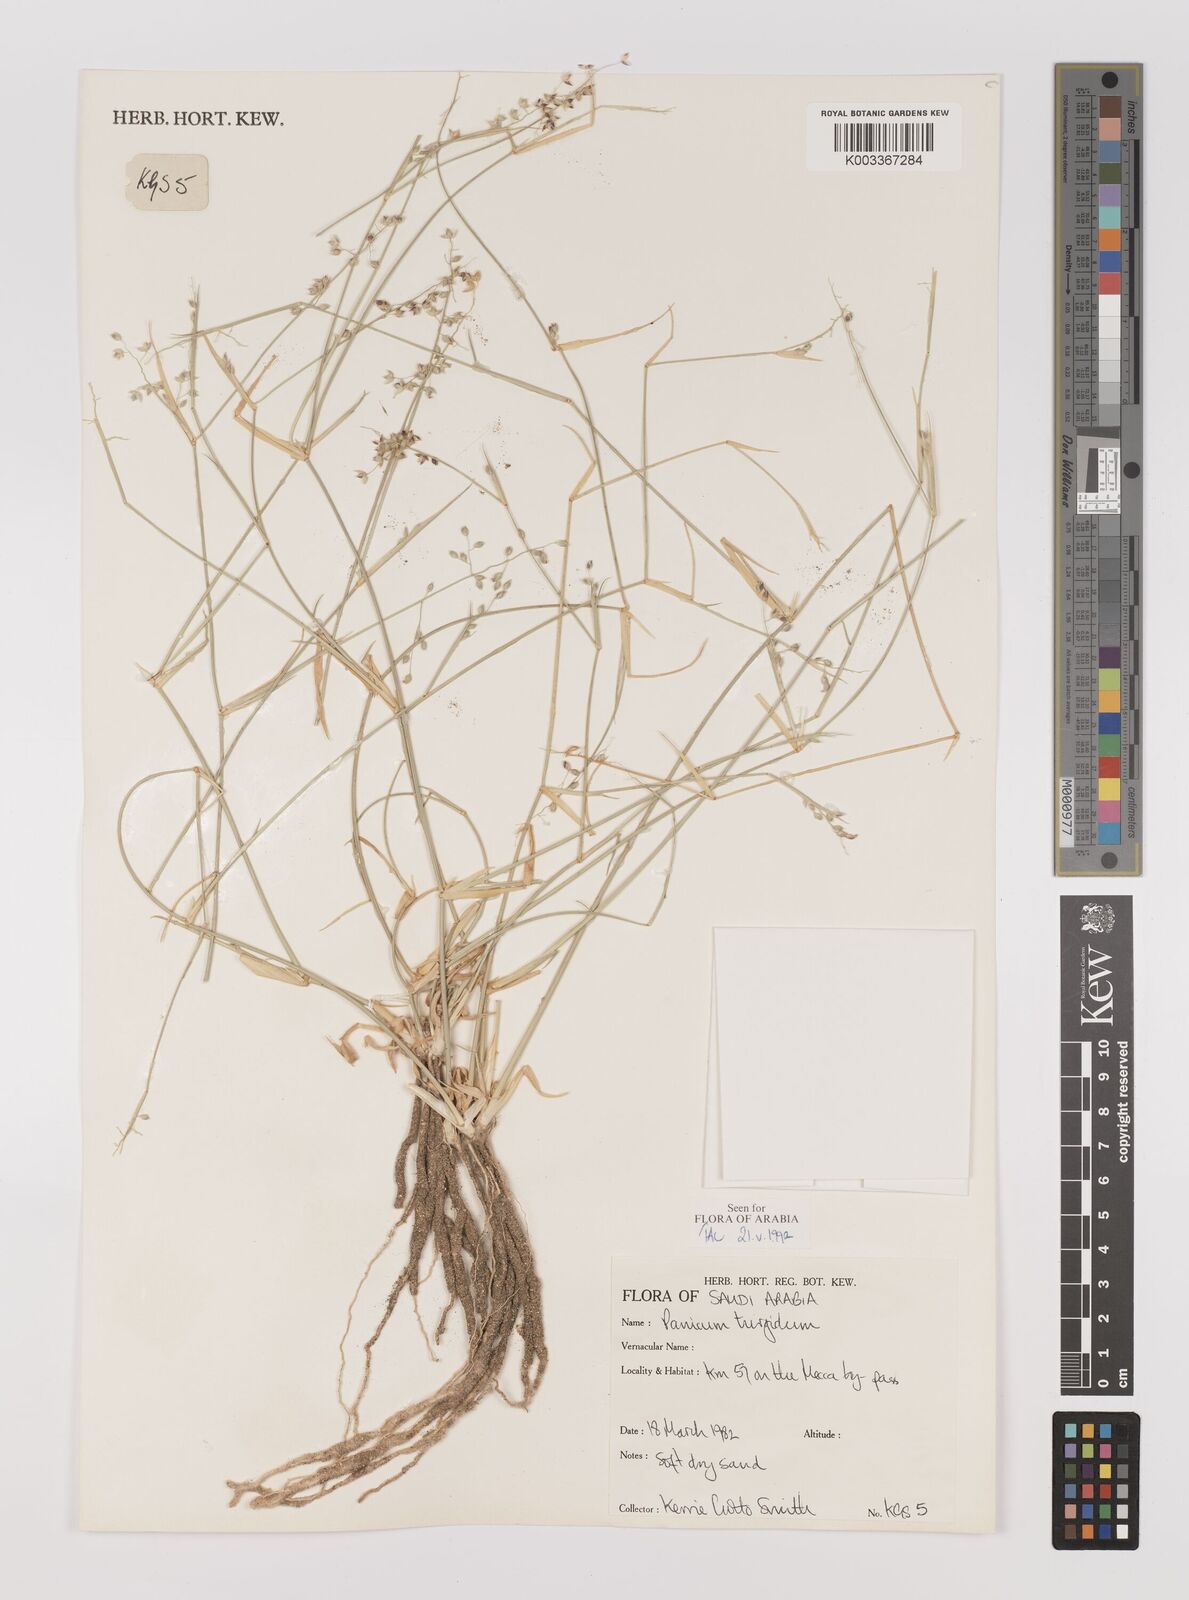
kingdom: Plantae
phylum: Tracheophyta
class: Liliopsida
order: Poales
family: Poaceae
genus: Panicum
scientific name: Panicum turgidum
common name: Desert grass
